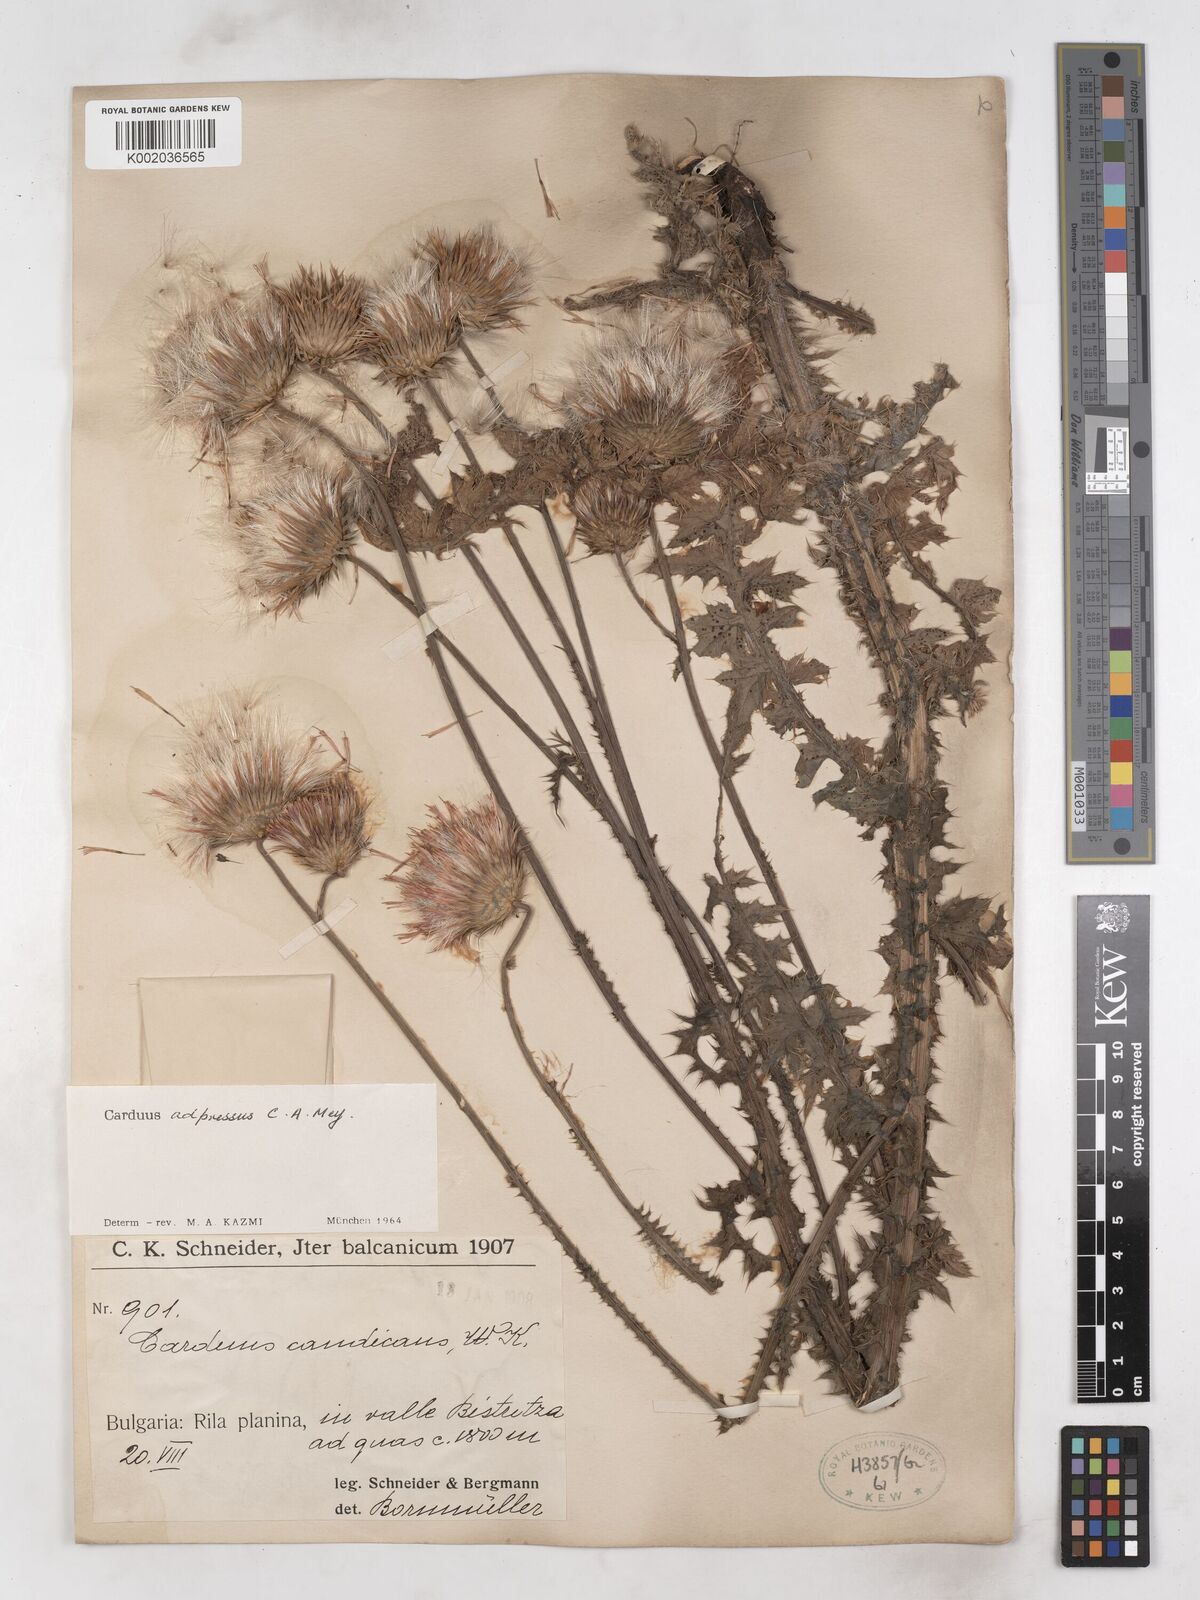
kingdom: Plantae
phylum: Tracheophyta
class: Magnoliopsida
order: Asterales
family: Asteraceae
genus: Carduus
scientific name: Carduus adpressus
